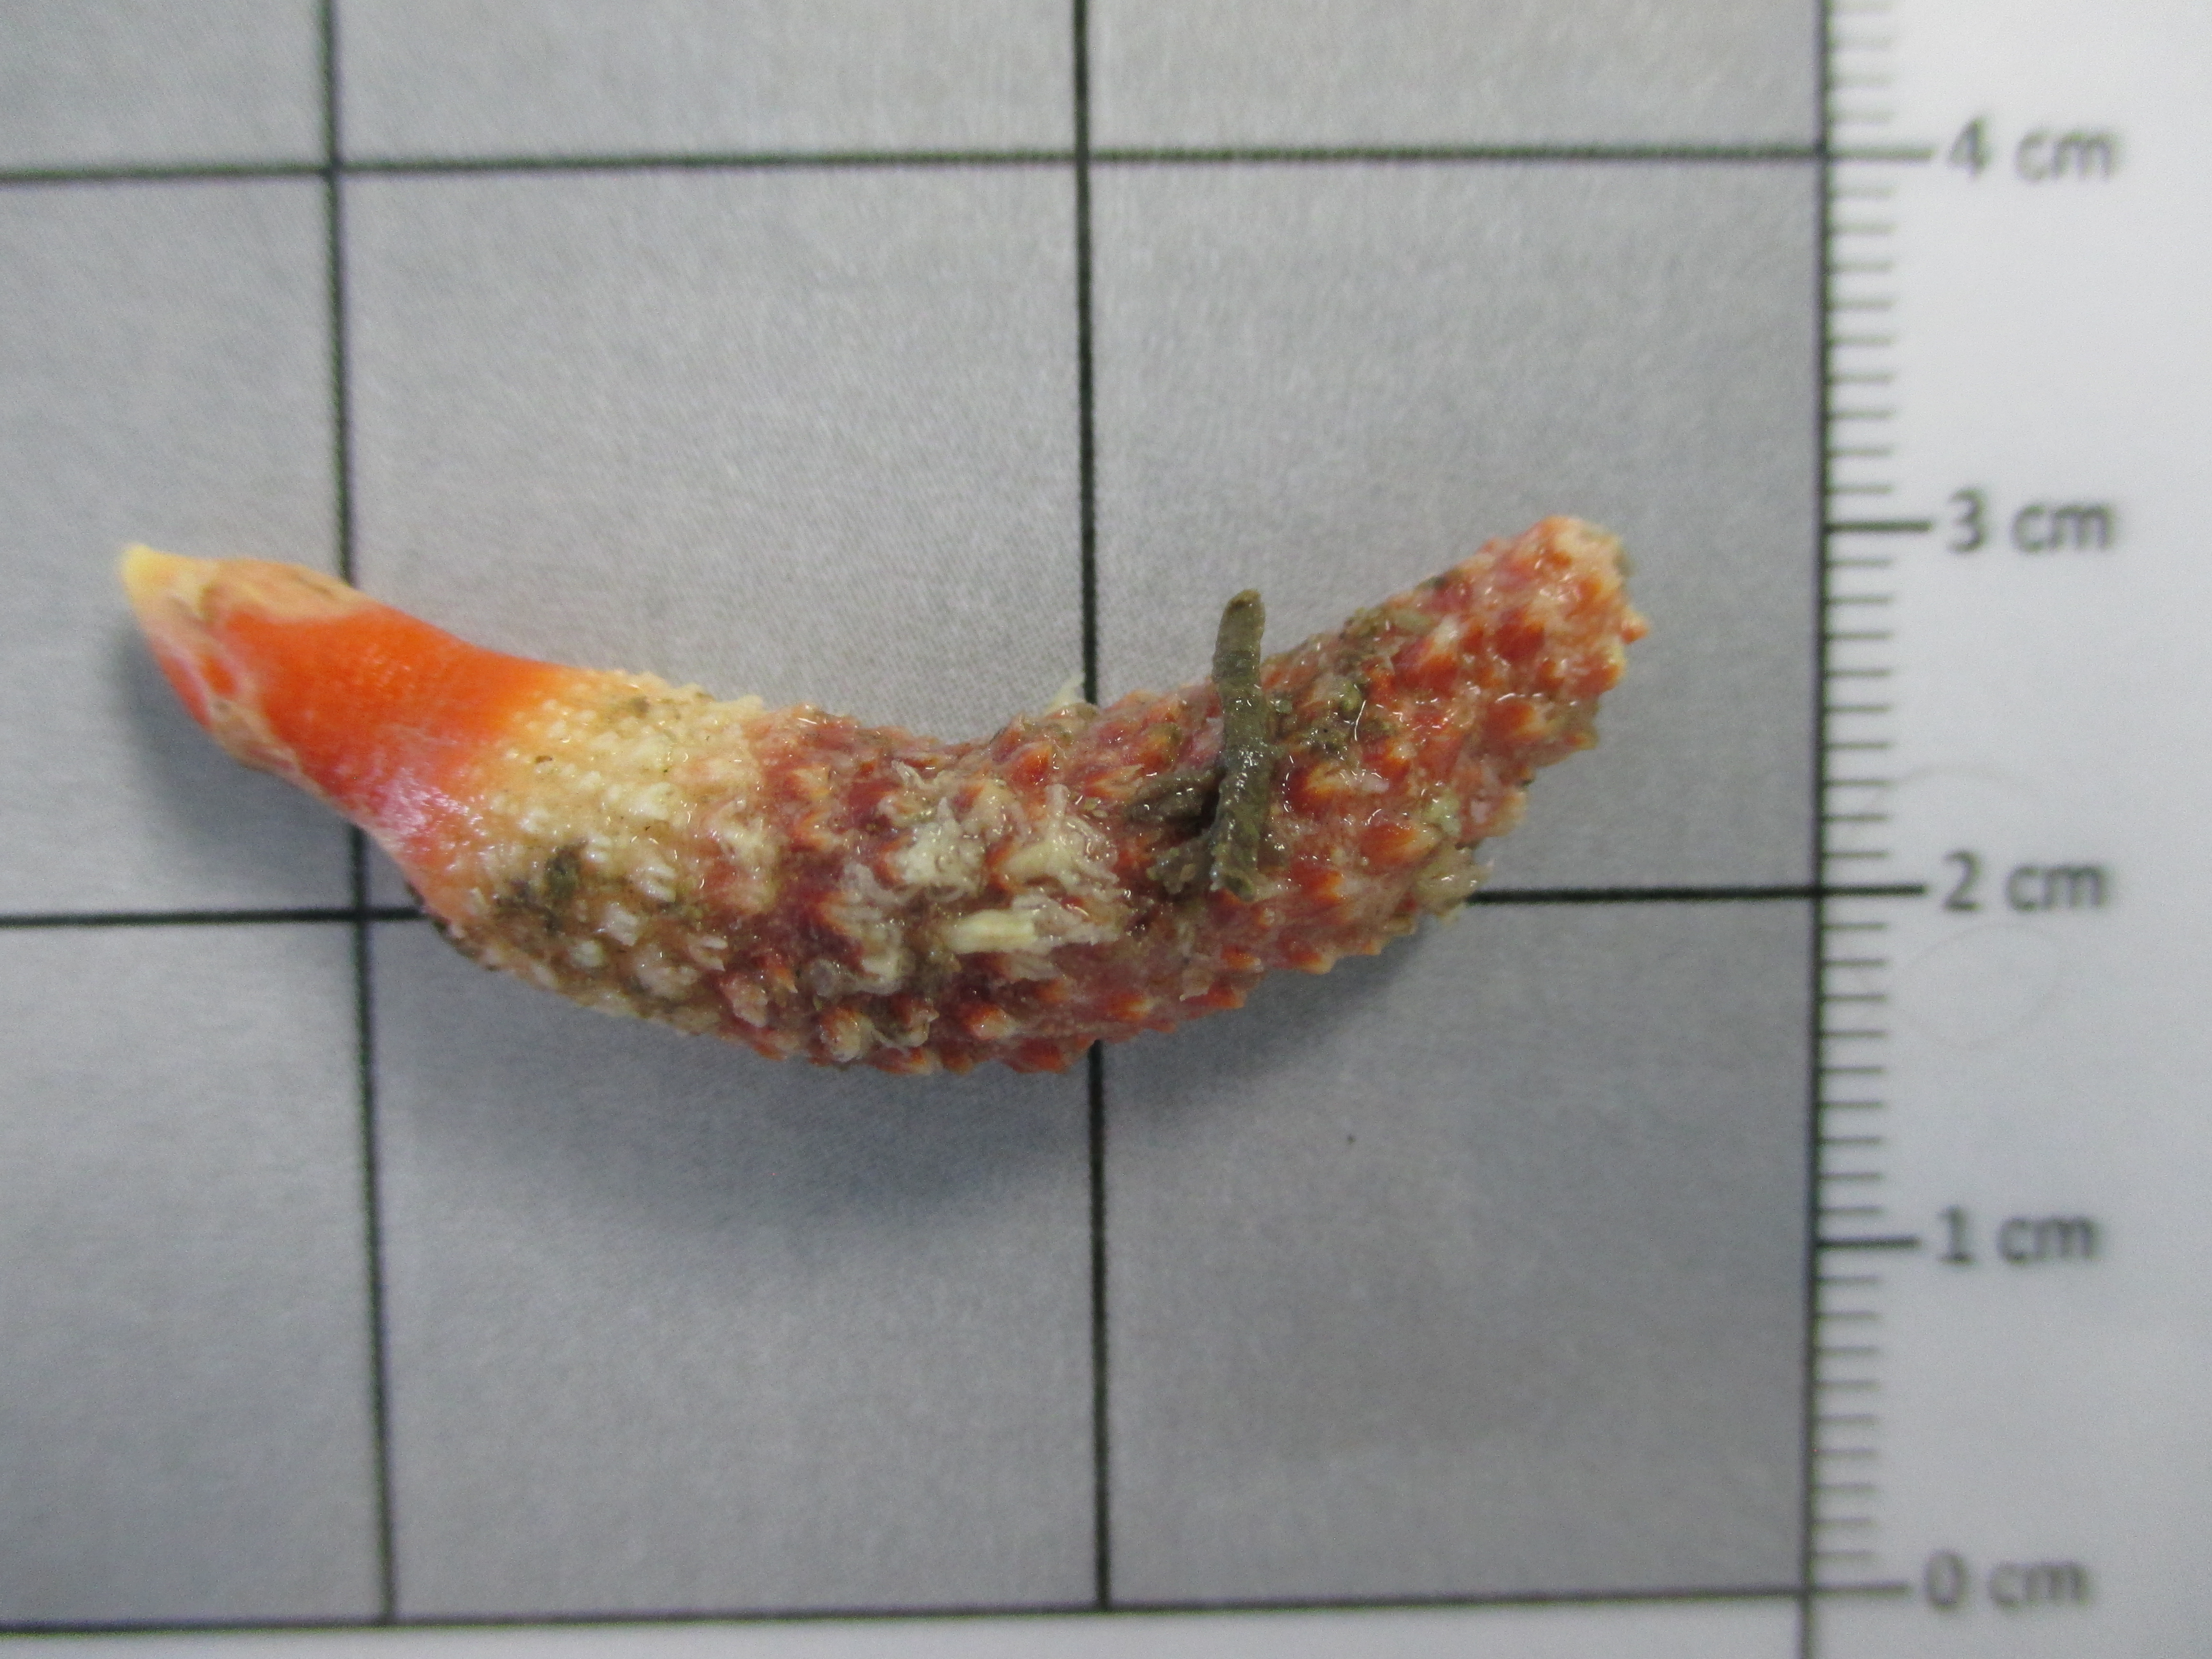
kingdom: Animalia
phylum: Cnidaria
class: Anthozoa
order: Scleralcyonacea
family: Echinoptilidae
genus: Actinoptilum
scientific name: Actinoptilum molle
